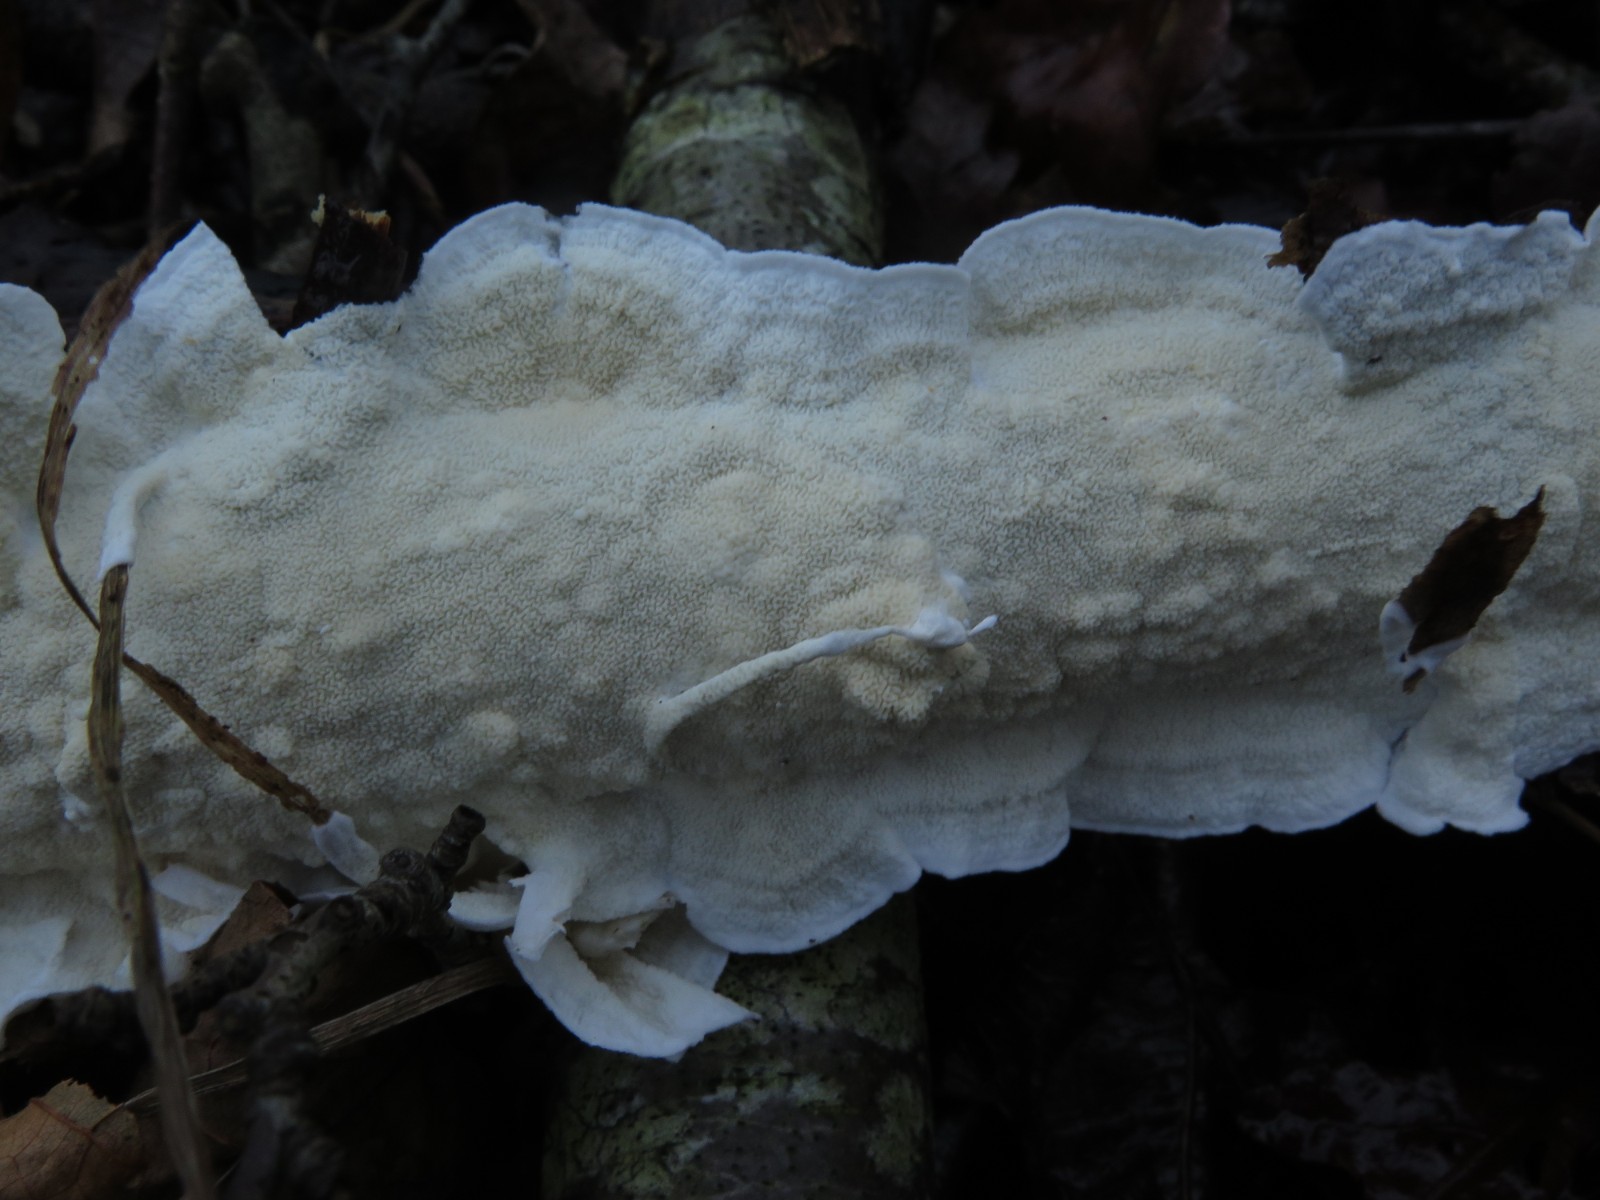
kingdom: Fungi
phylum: Basidiomycota
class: Agaricomycetes
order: Polyporales
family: Irpicaceae
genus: Byssomerulius
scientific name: Byssomerulius corium
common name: læder-åresvamp
